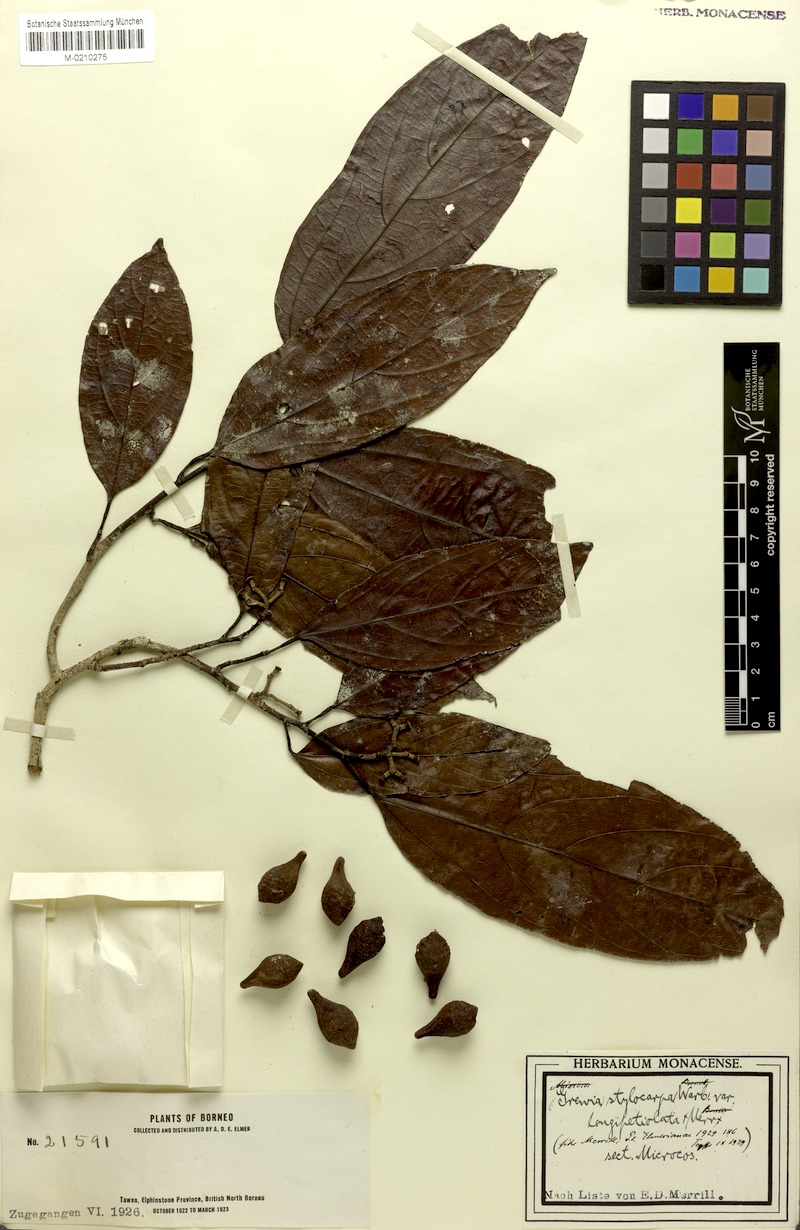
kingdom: Plantae
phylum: Tracheophyta
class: Magnoliopsida
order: Malvales
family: Malvaceae
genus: Microcos
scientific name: Microcos triflora
